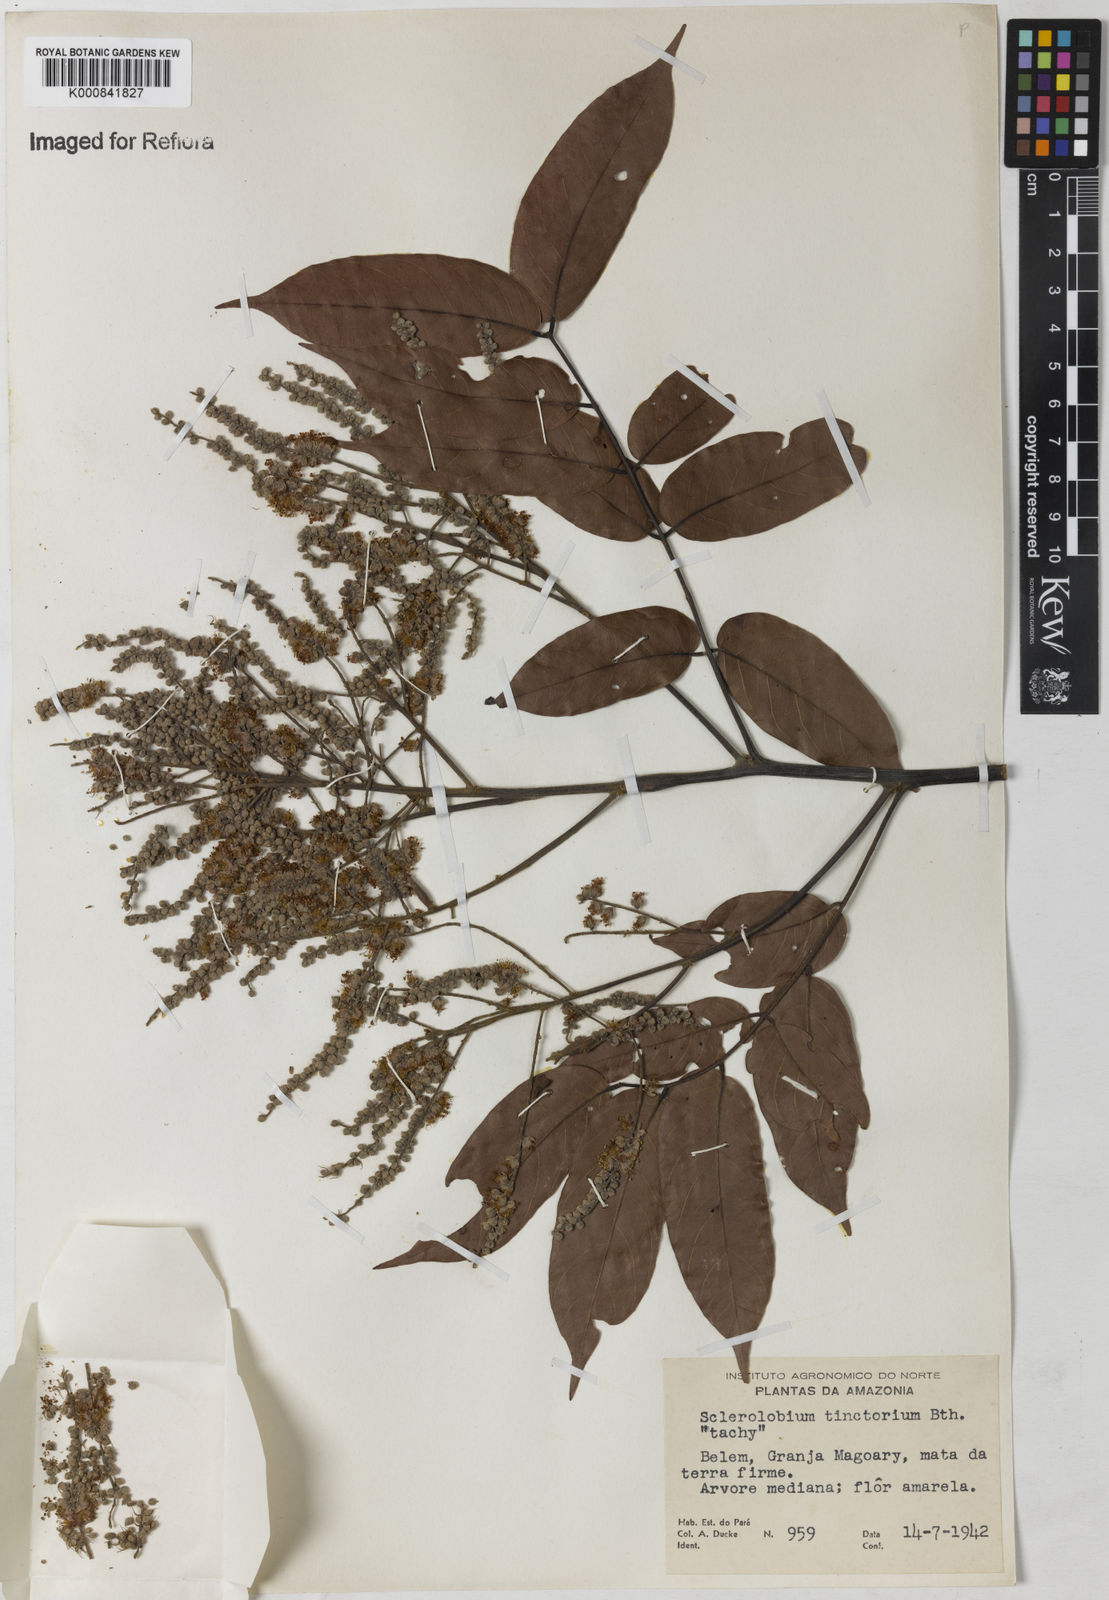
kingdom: Plantae
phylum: Tracheophyta
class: Magnoliopsida
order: Fabales
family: Fabaceae
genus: Tachigali
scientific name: Tachigali tinctoria
